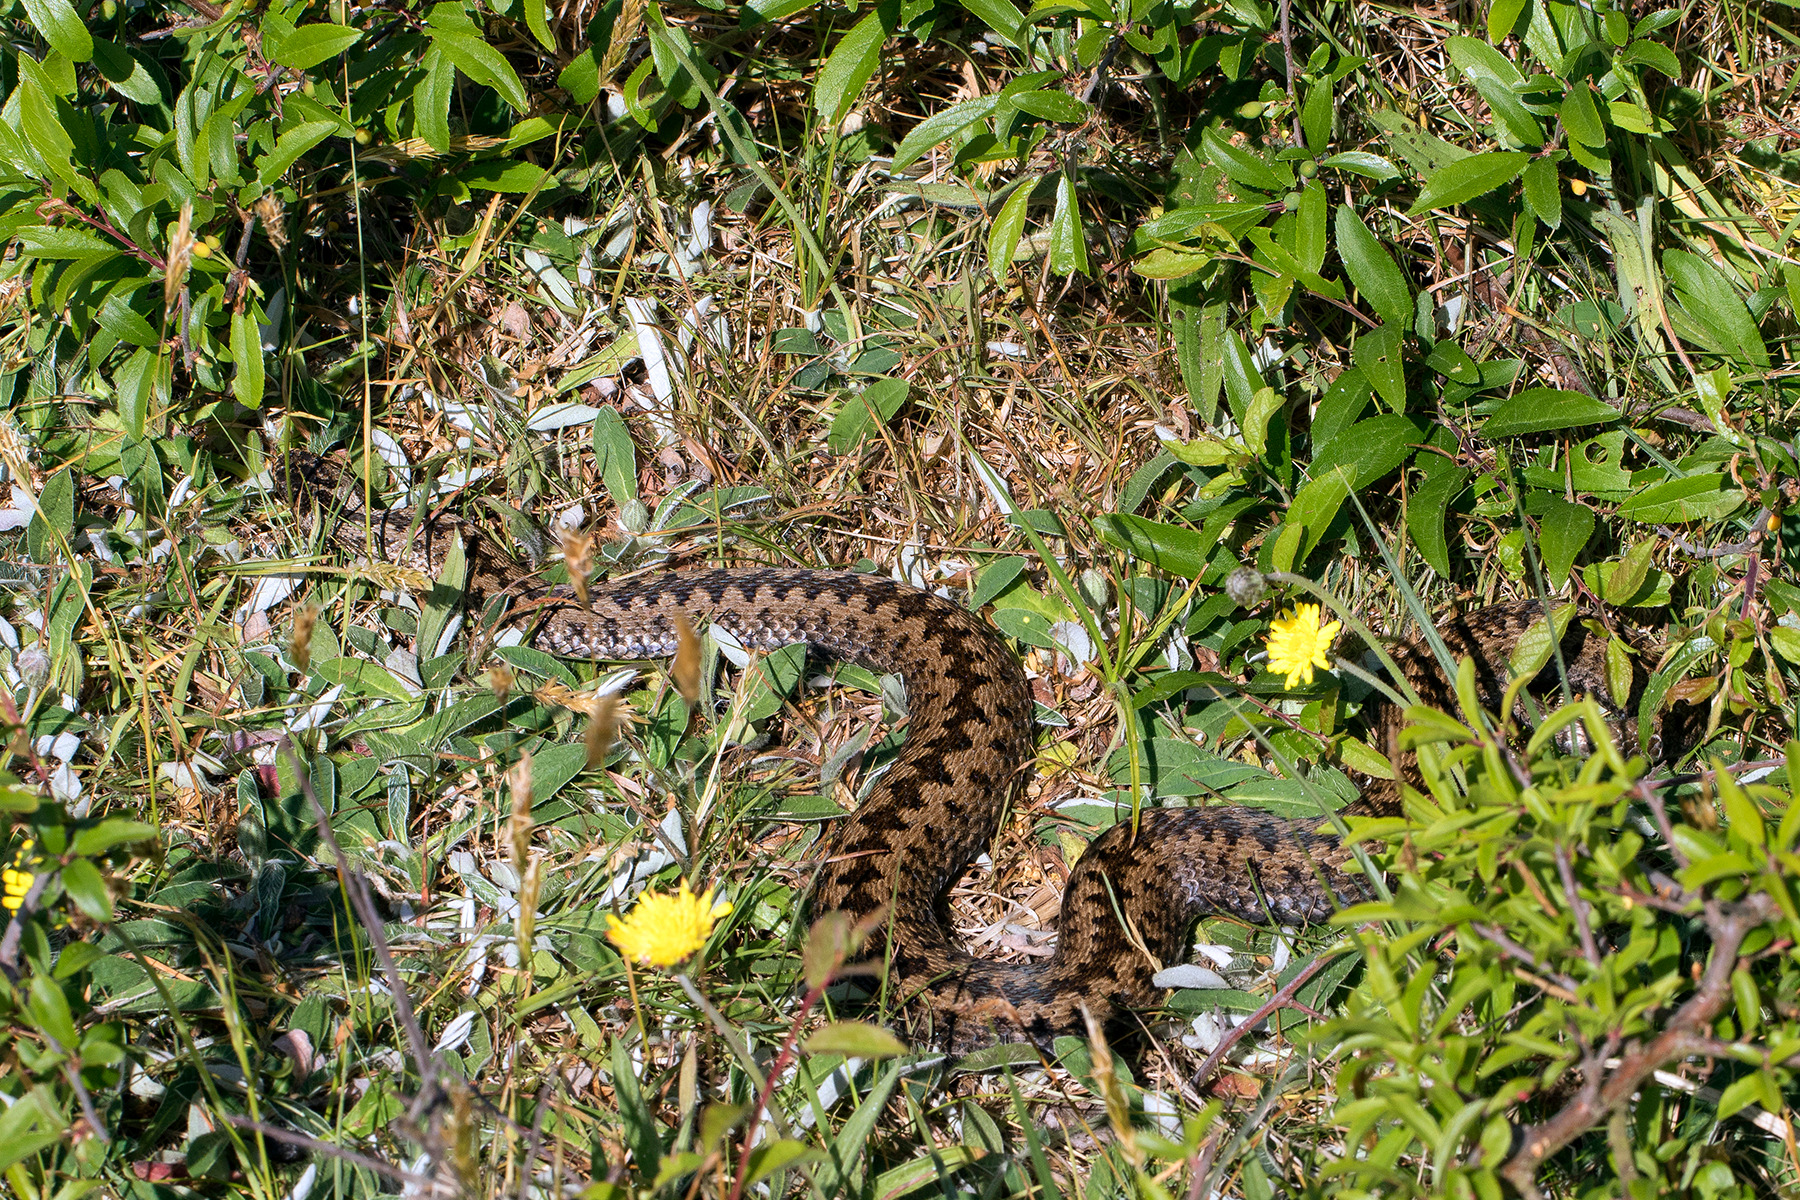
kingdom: Animalia
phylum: Chordata
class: Squamata
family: Viperidae
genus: Vipera
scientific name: Vipera berus
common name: Hugorm
